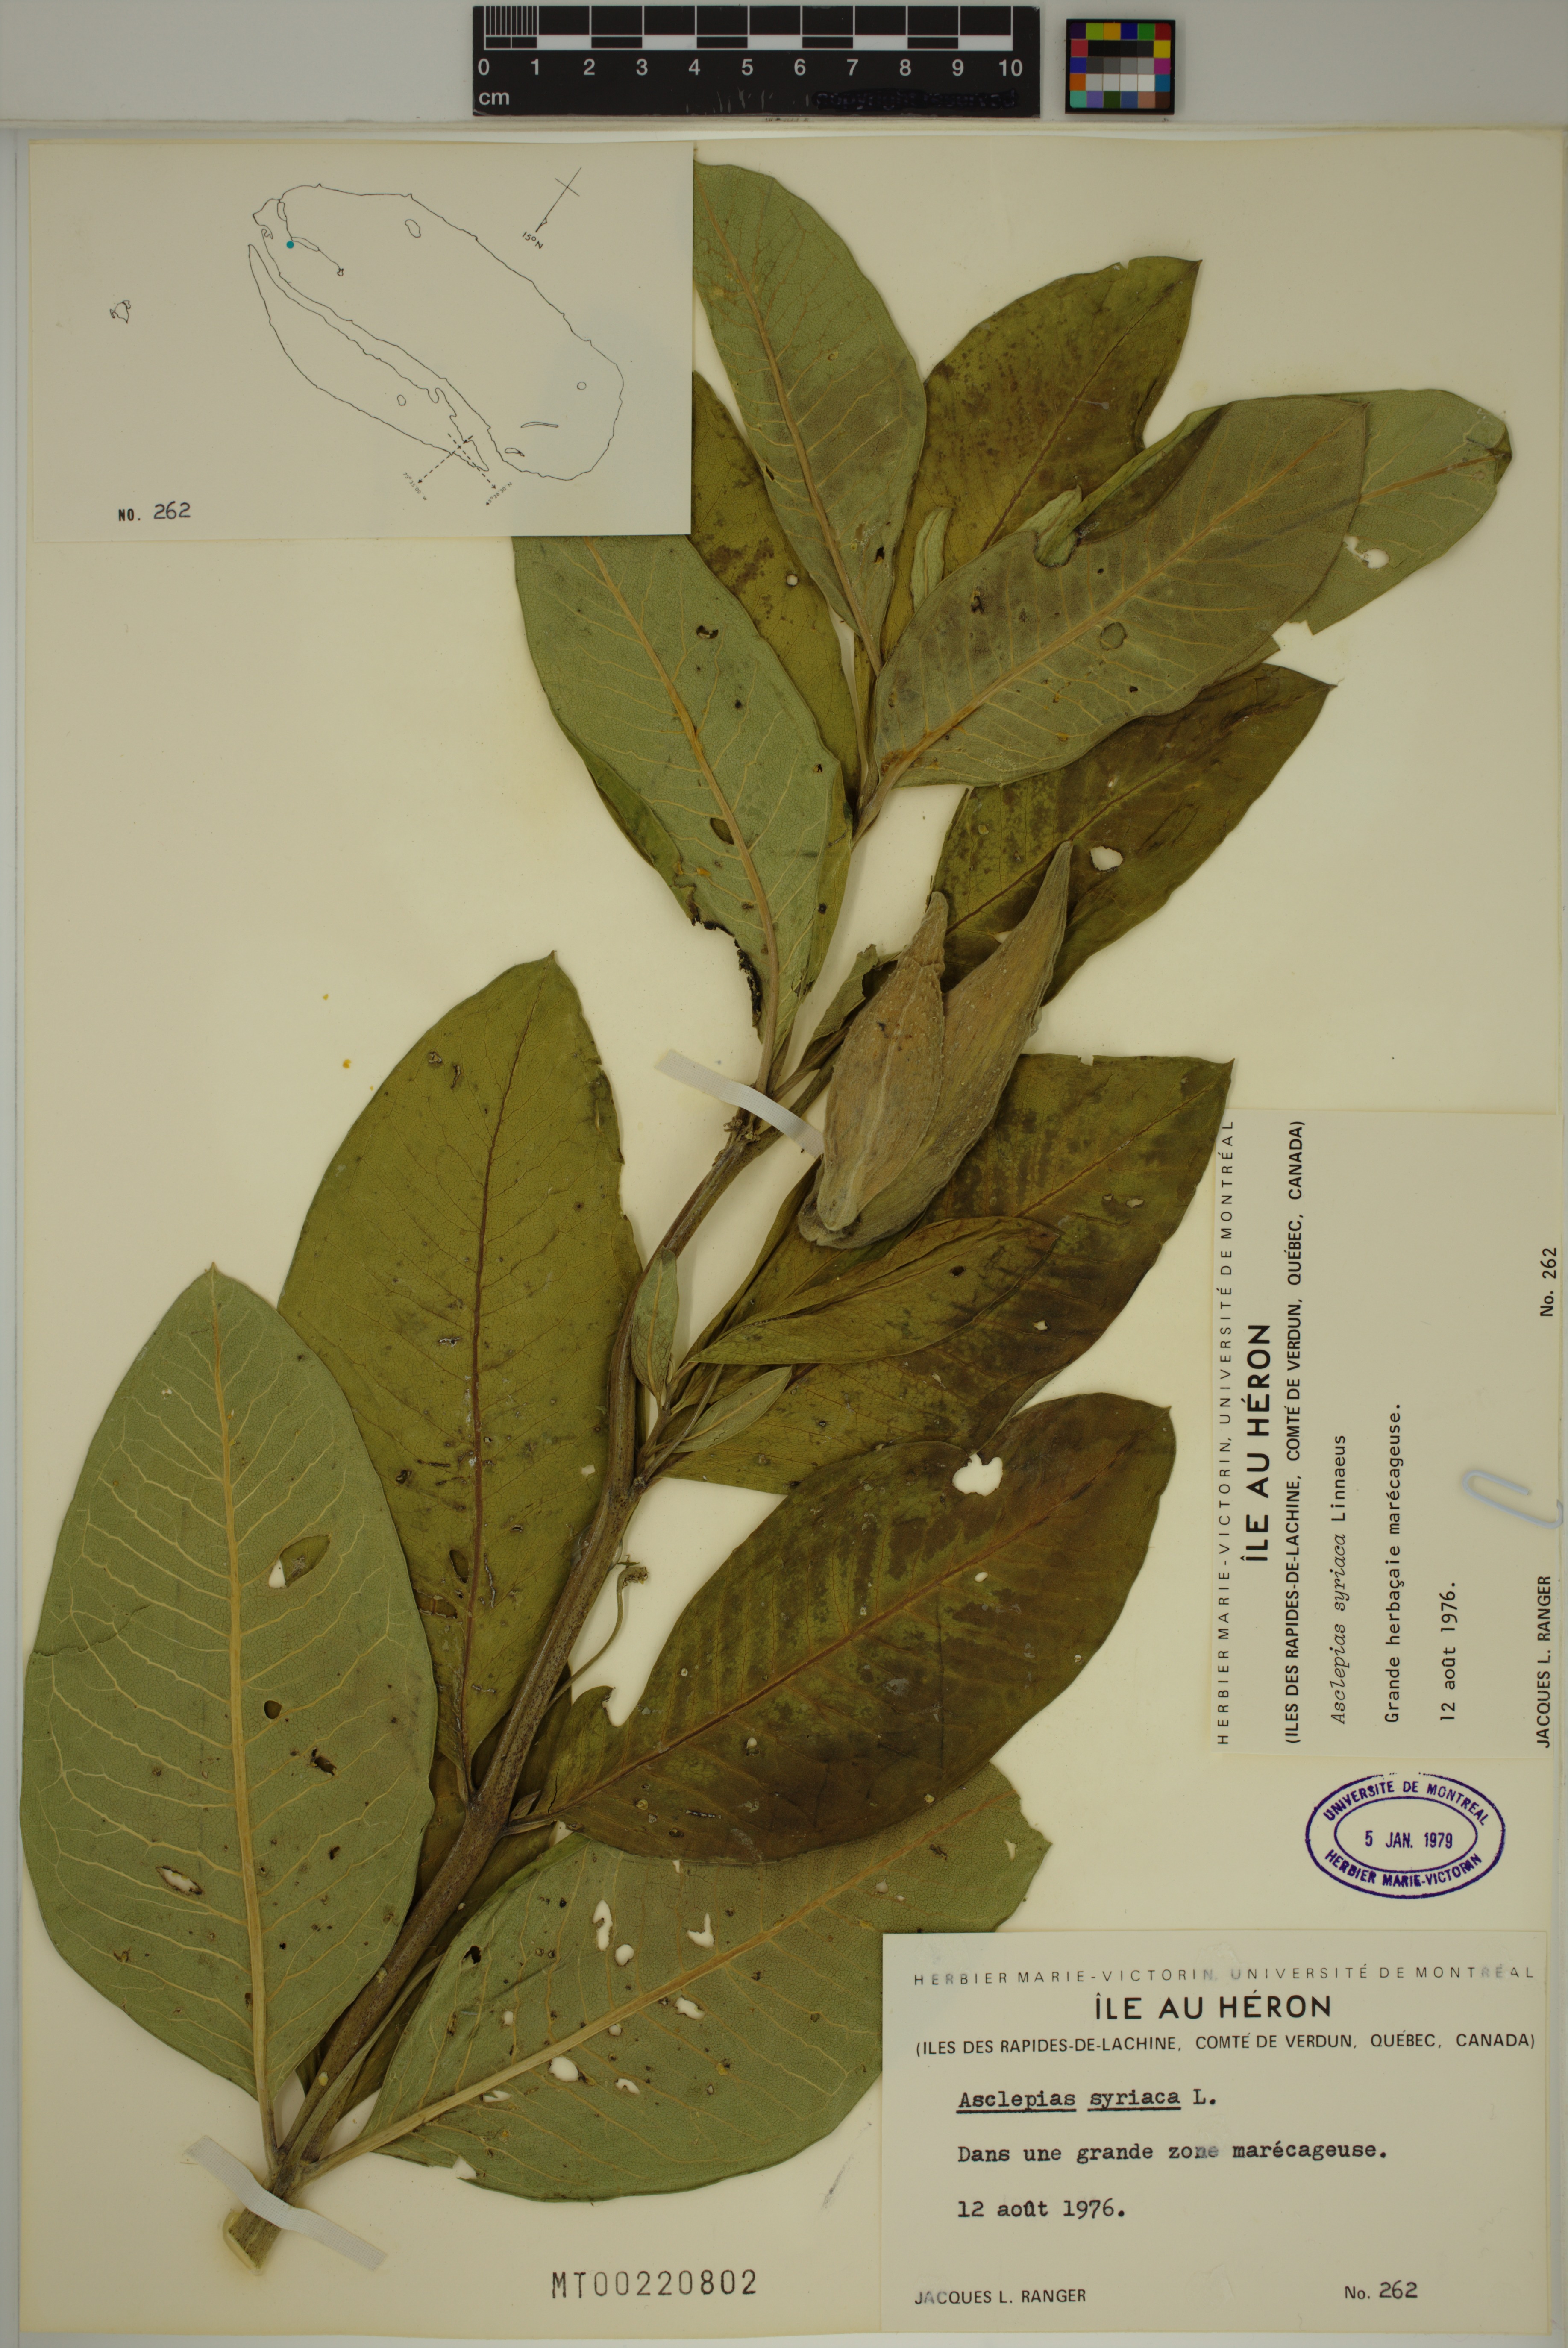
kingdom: Plantae
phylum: Tracheophyta
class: Magnoliopsida
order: Gentianales
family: Apocynaceae
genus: Asclepias
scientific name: Asclepias syriaca
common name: Common milkweed
